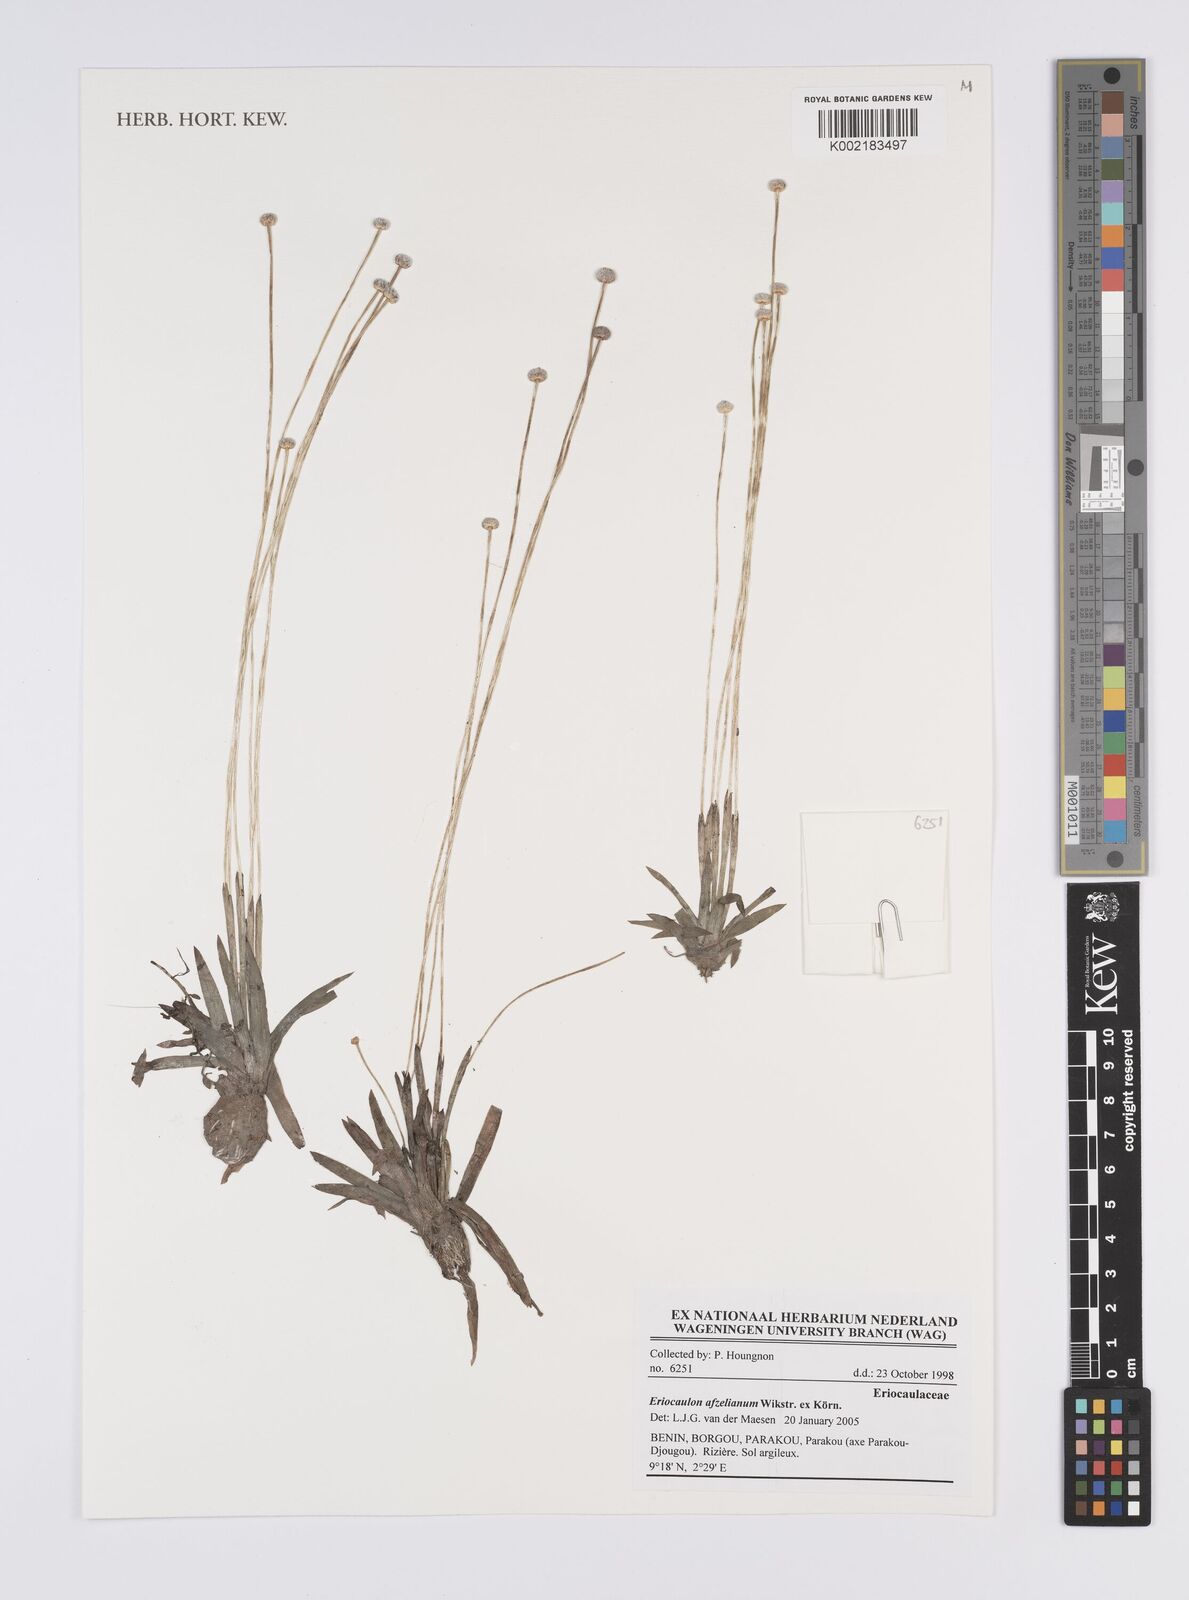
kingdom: Plantae
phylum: Tracheophyta
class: Liliopsida
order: Poales
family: Eriocaulaceae
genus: Eriocaulon
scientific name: Eriocaulon afzelianum
